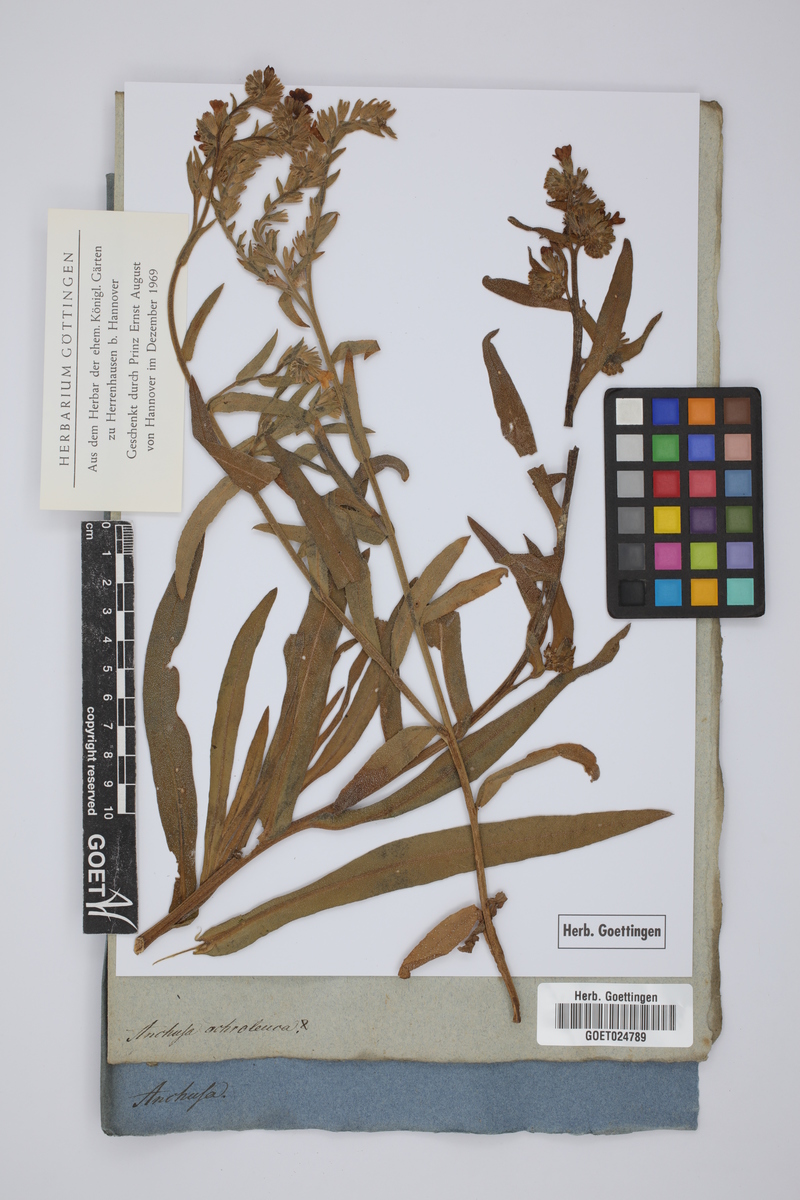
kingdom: Plantae
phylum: Tracheophyta
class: Magnoliopsida
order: Boraginales
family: Boraginaceae
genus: Anchusa
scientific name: Anchusa ochroleuca
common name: Yellow alkanet
